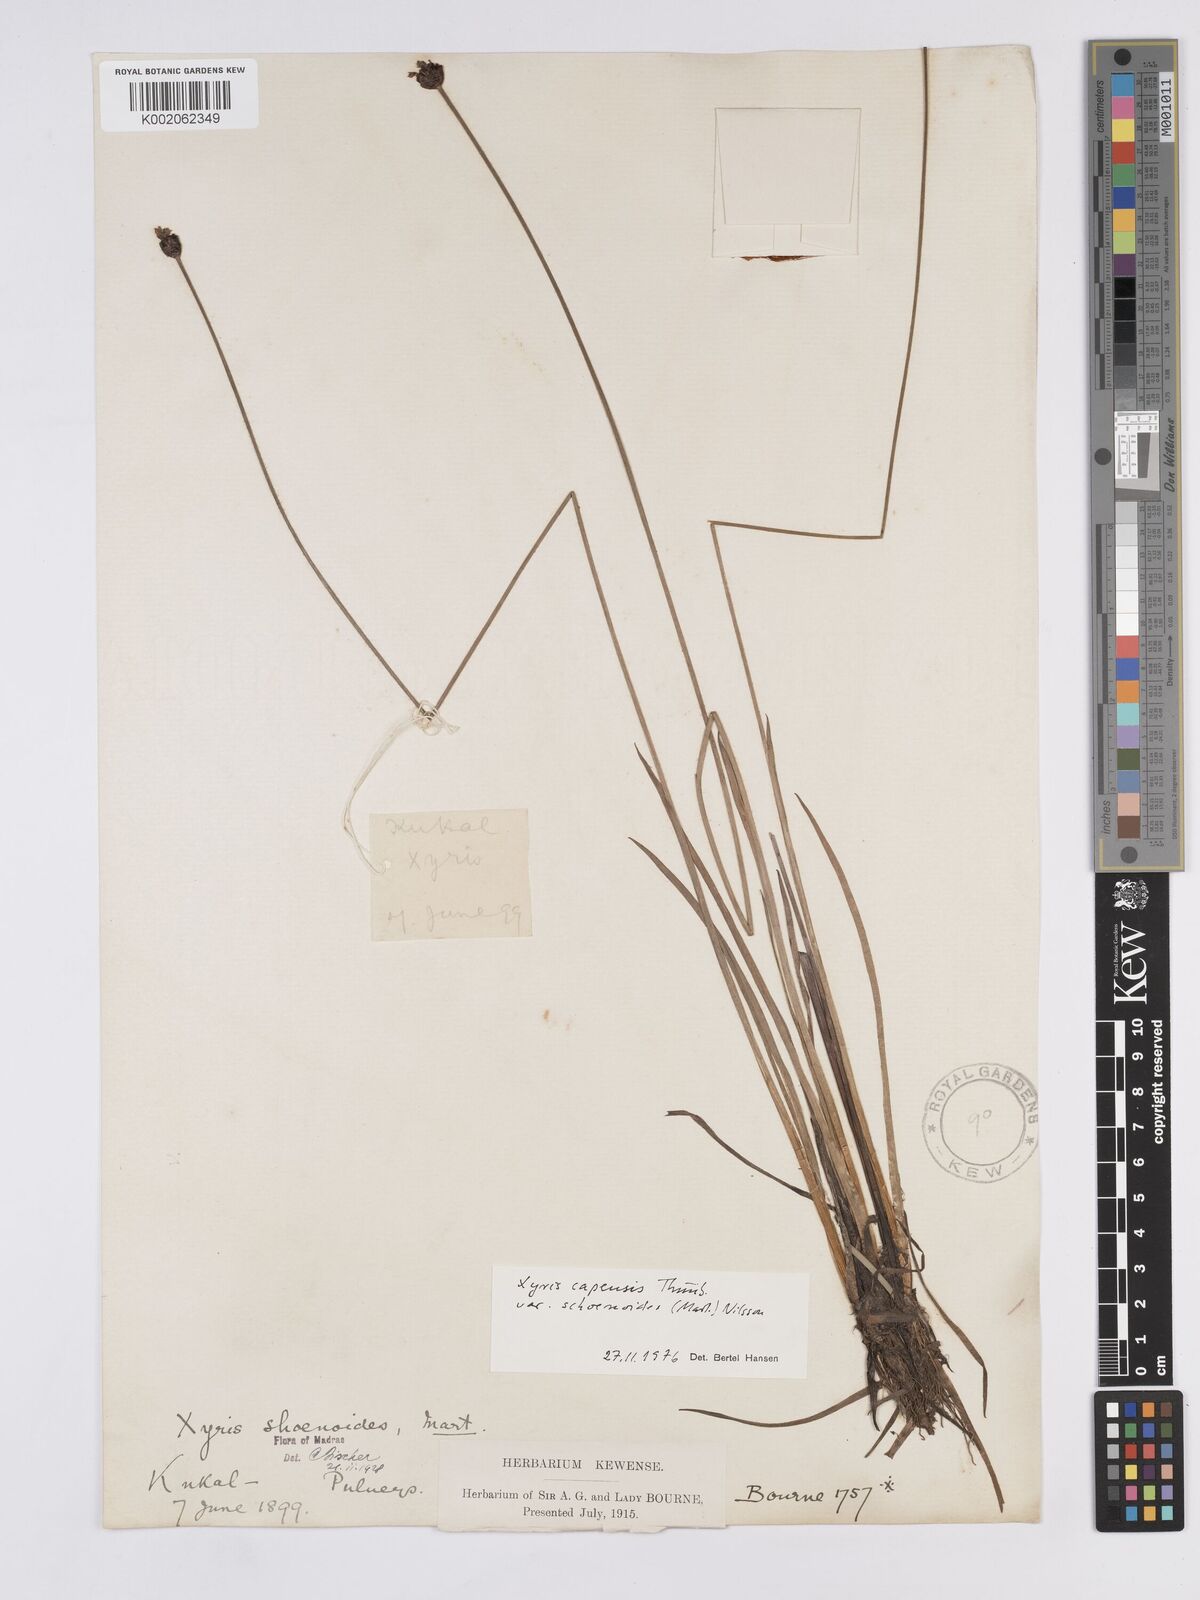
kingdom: Plantae
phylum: Tracheophyta
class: Liliopsida
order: Poales
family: Xyridaceae
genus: Xyris
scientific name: Xyris capensis
